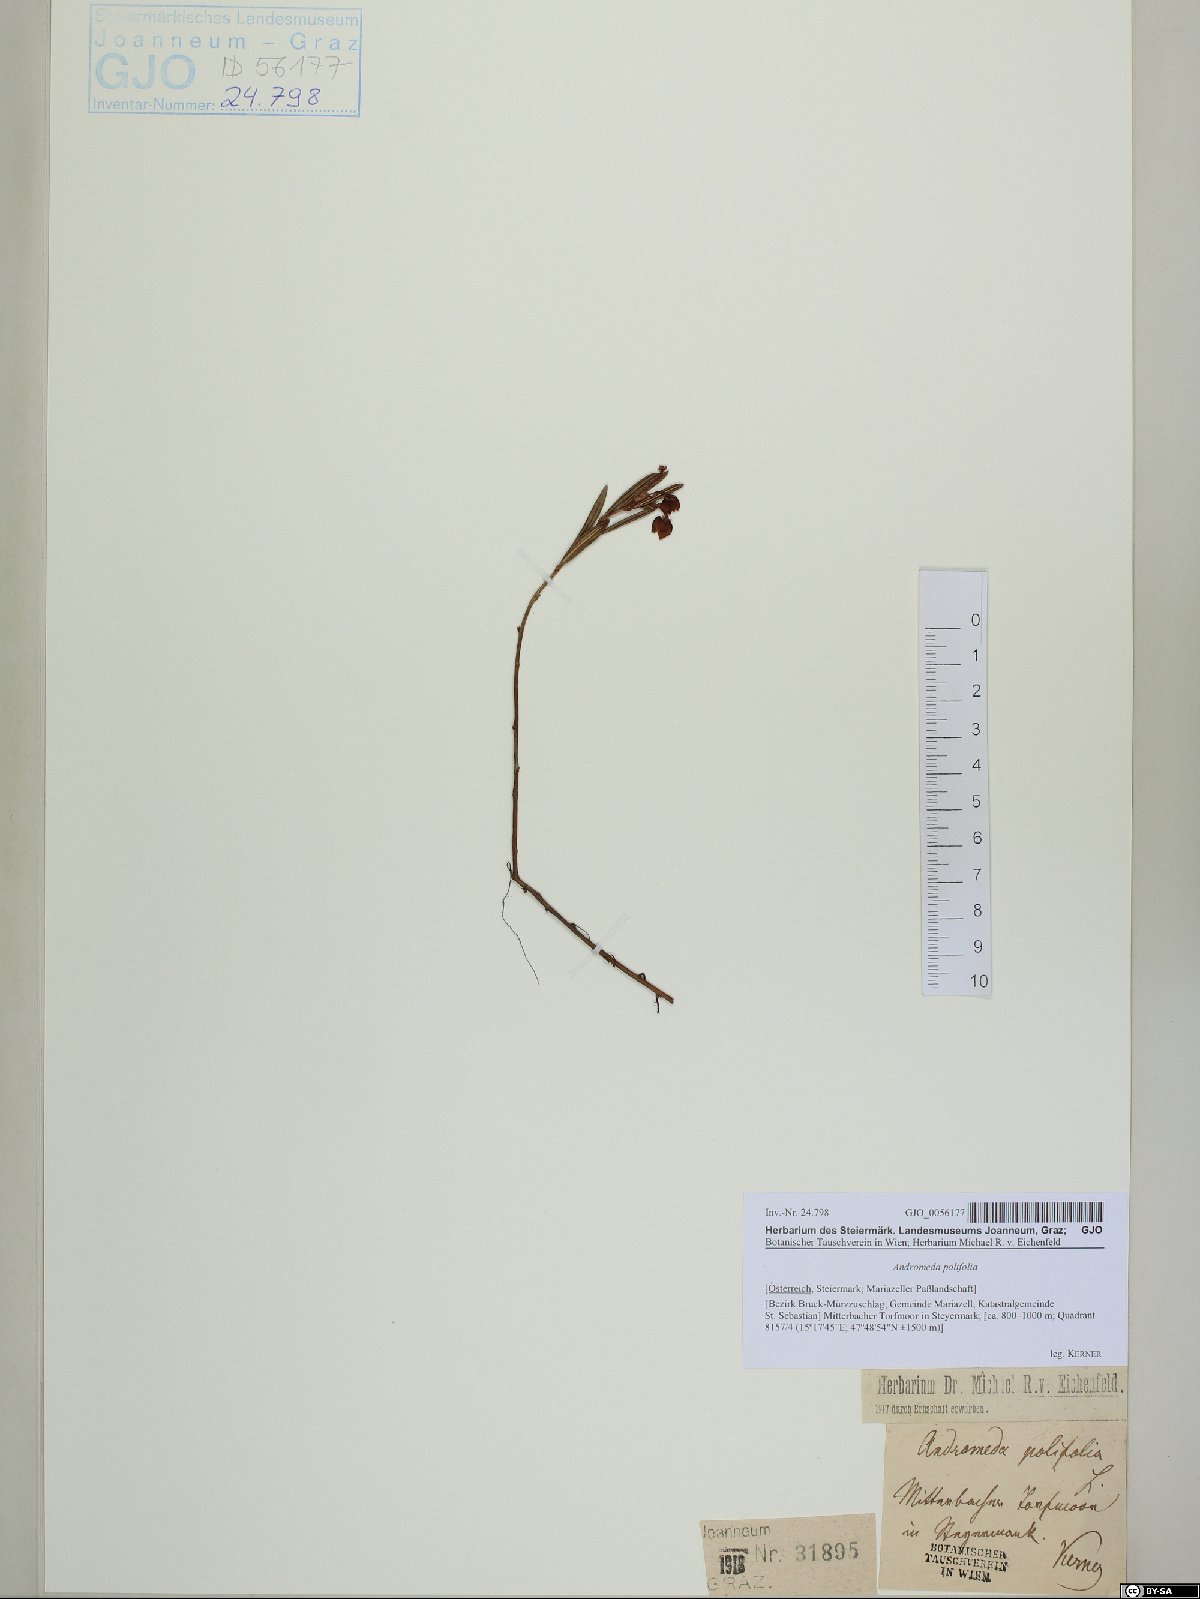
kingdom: Plantae
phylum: Tracheophyta
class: Magnoliopsida
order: Ericales
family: Ericaceae
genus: Andromeda
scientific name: Andromeda polifolia
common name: Bog-rosemary
